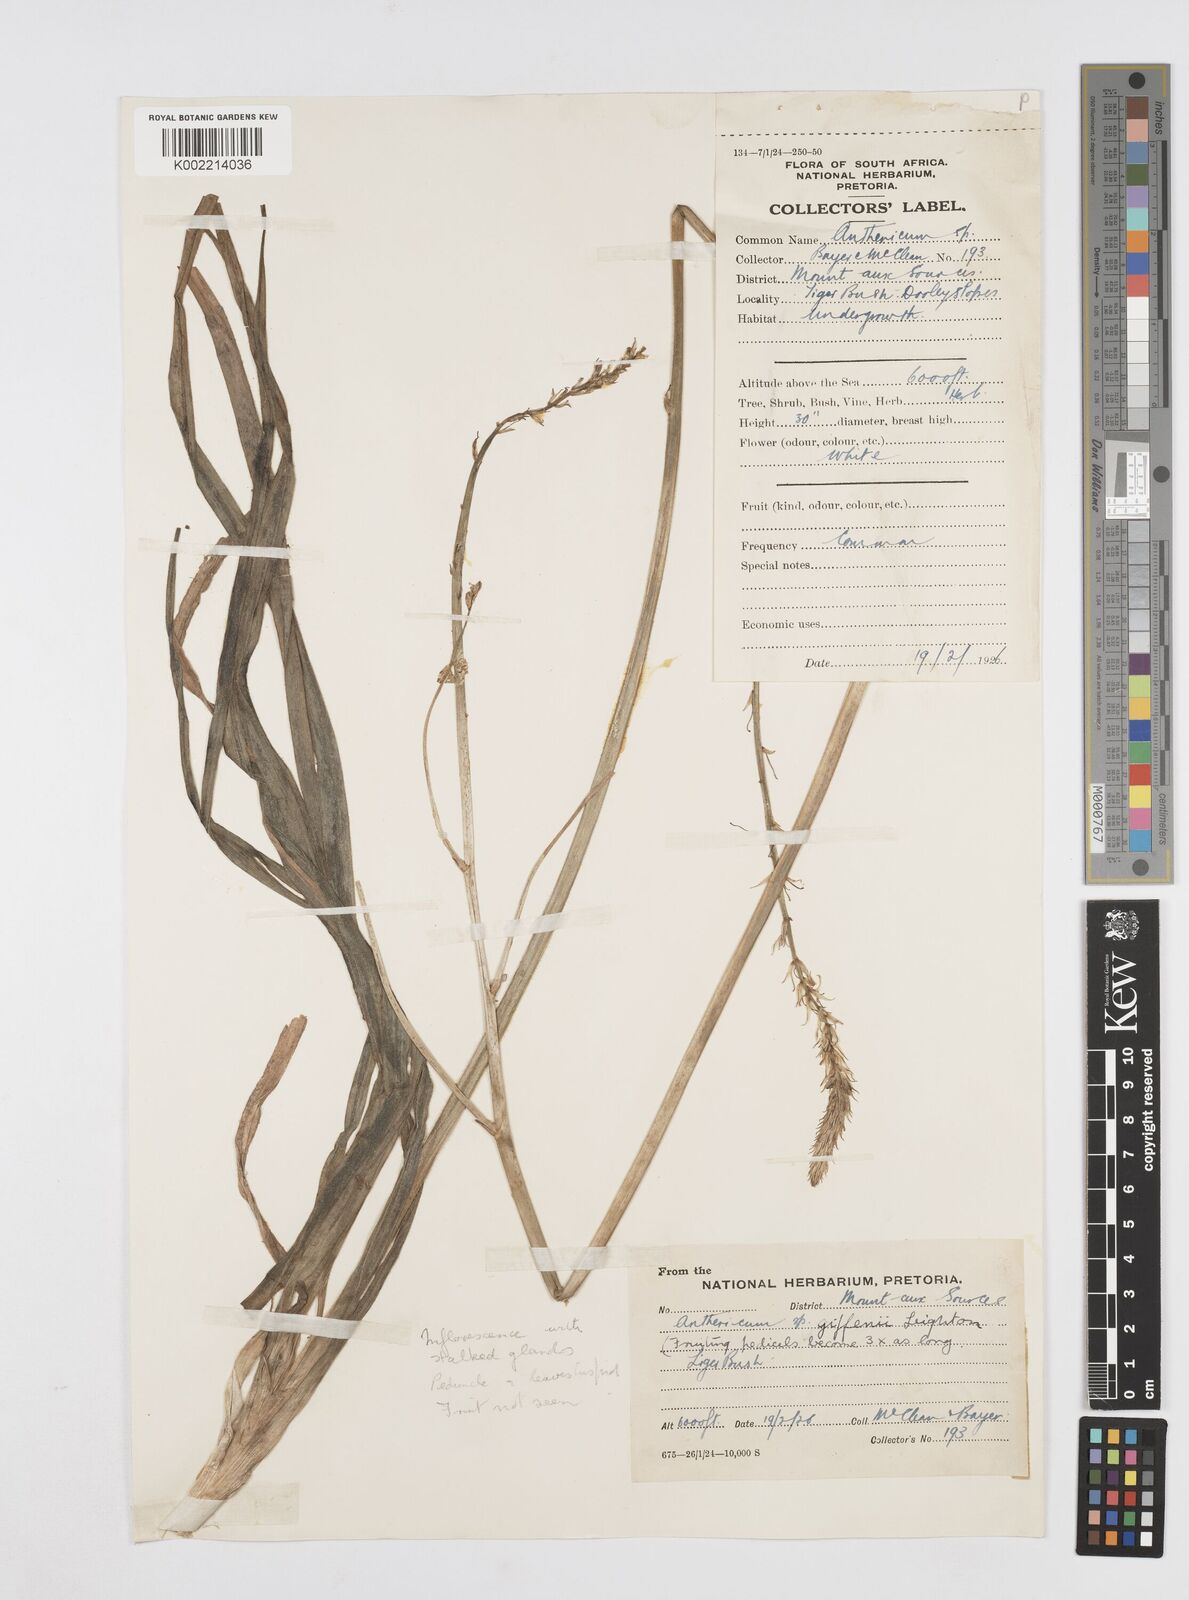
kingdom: Plantae
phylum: Tracheophyta
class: Liliopsida
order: Asparagales
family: Asphodelaceae
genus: Trachyandra
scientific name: Trachyandra giffenii
